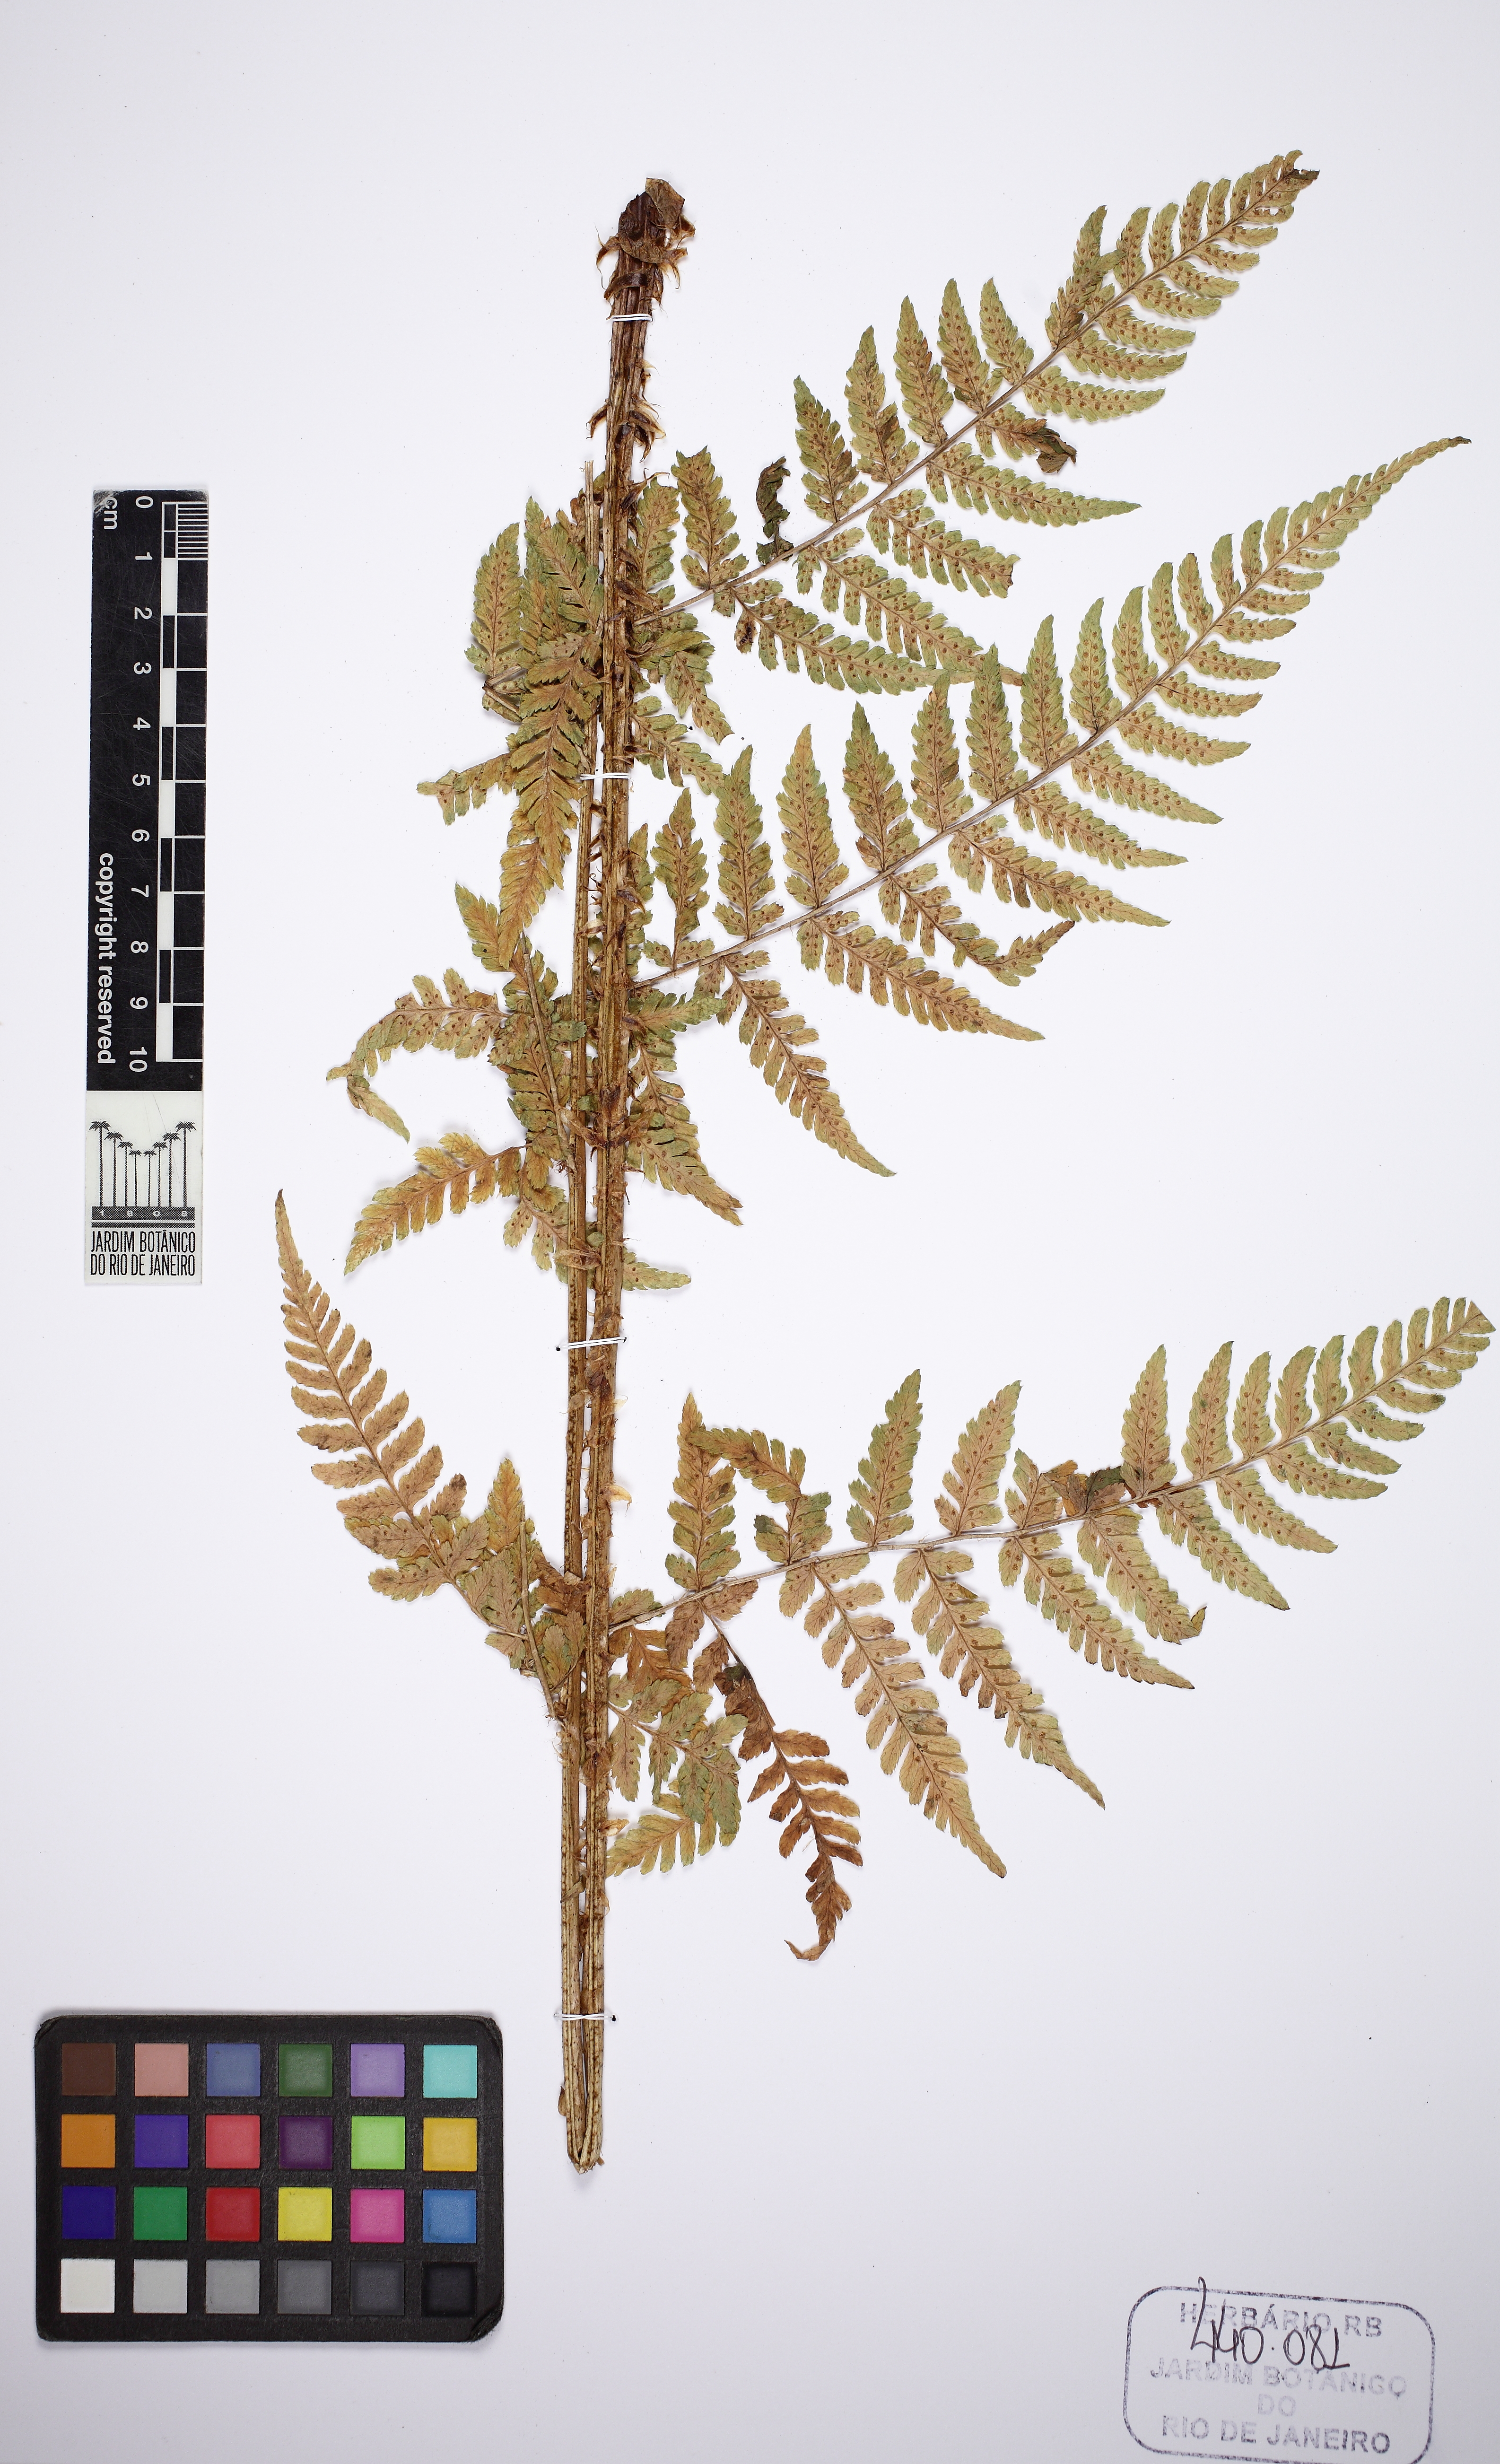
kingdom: Plantae
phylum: Tracheophyta
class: Polypodiopsida
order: Polypodiales
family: Dryopteridaceae
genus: Dryopteris
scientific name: Dryopteris expansa
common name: Northern buckler fern
